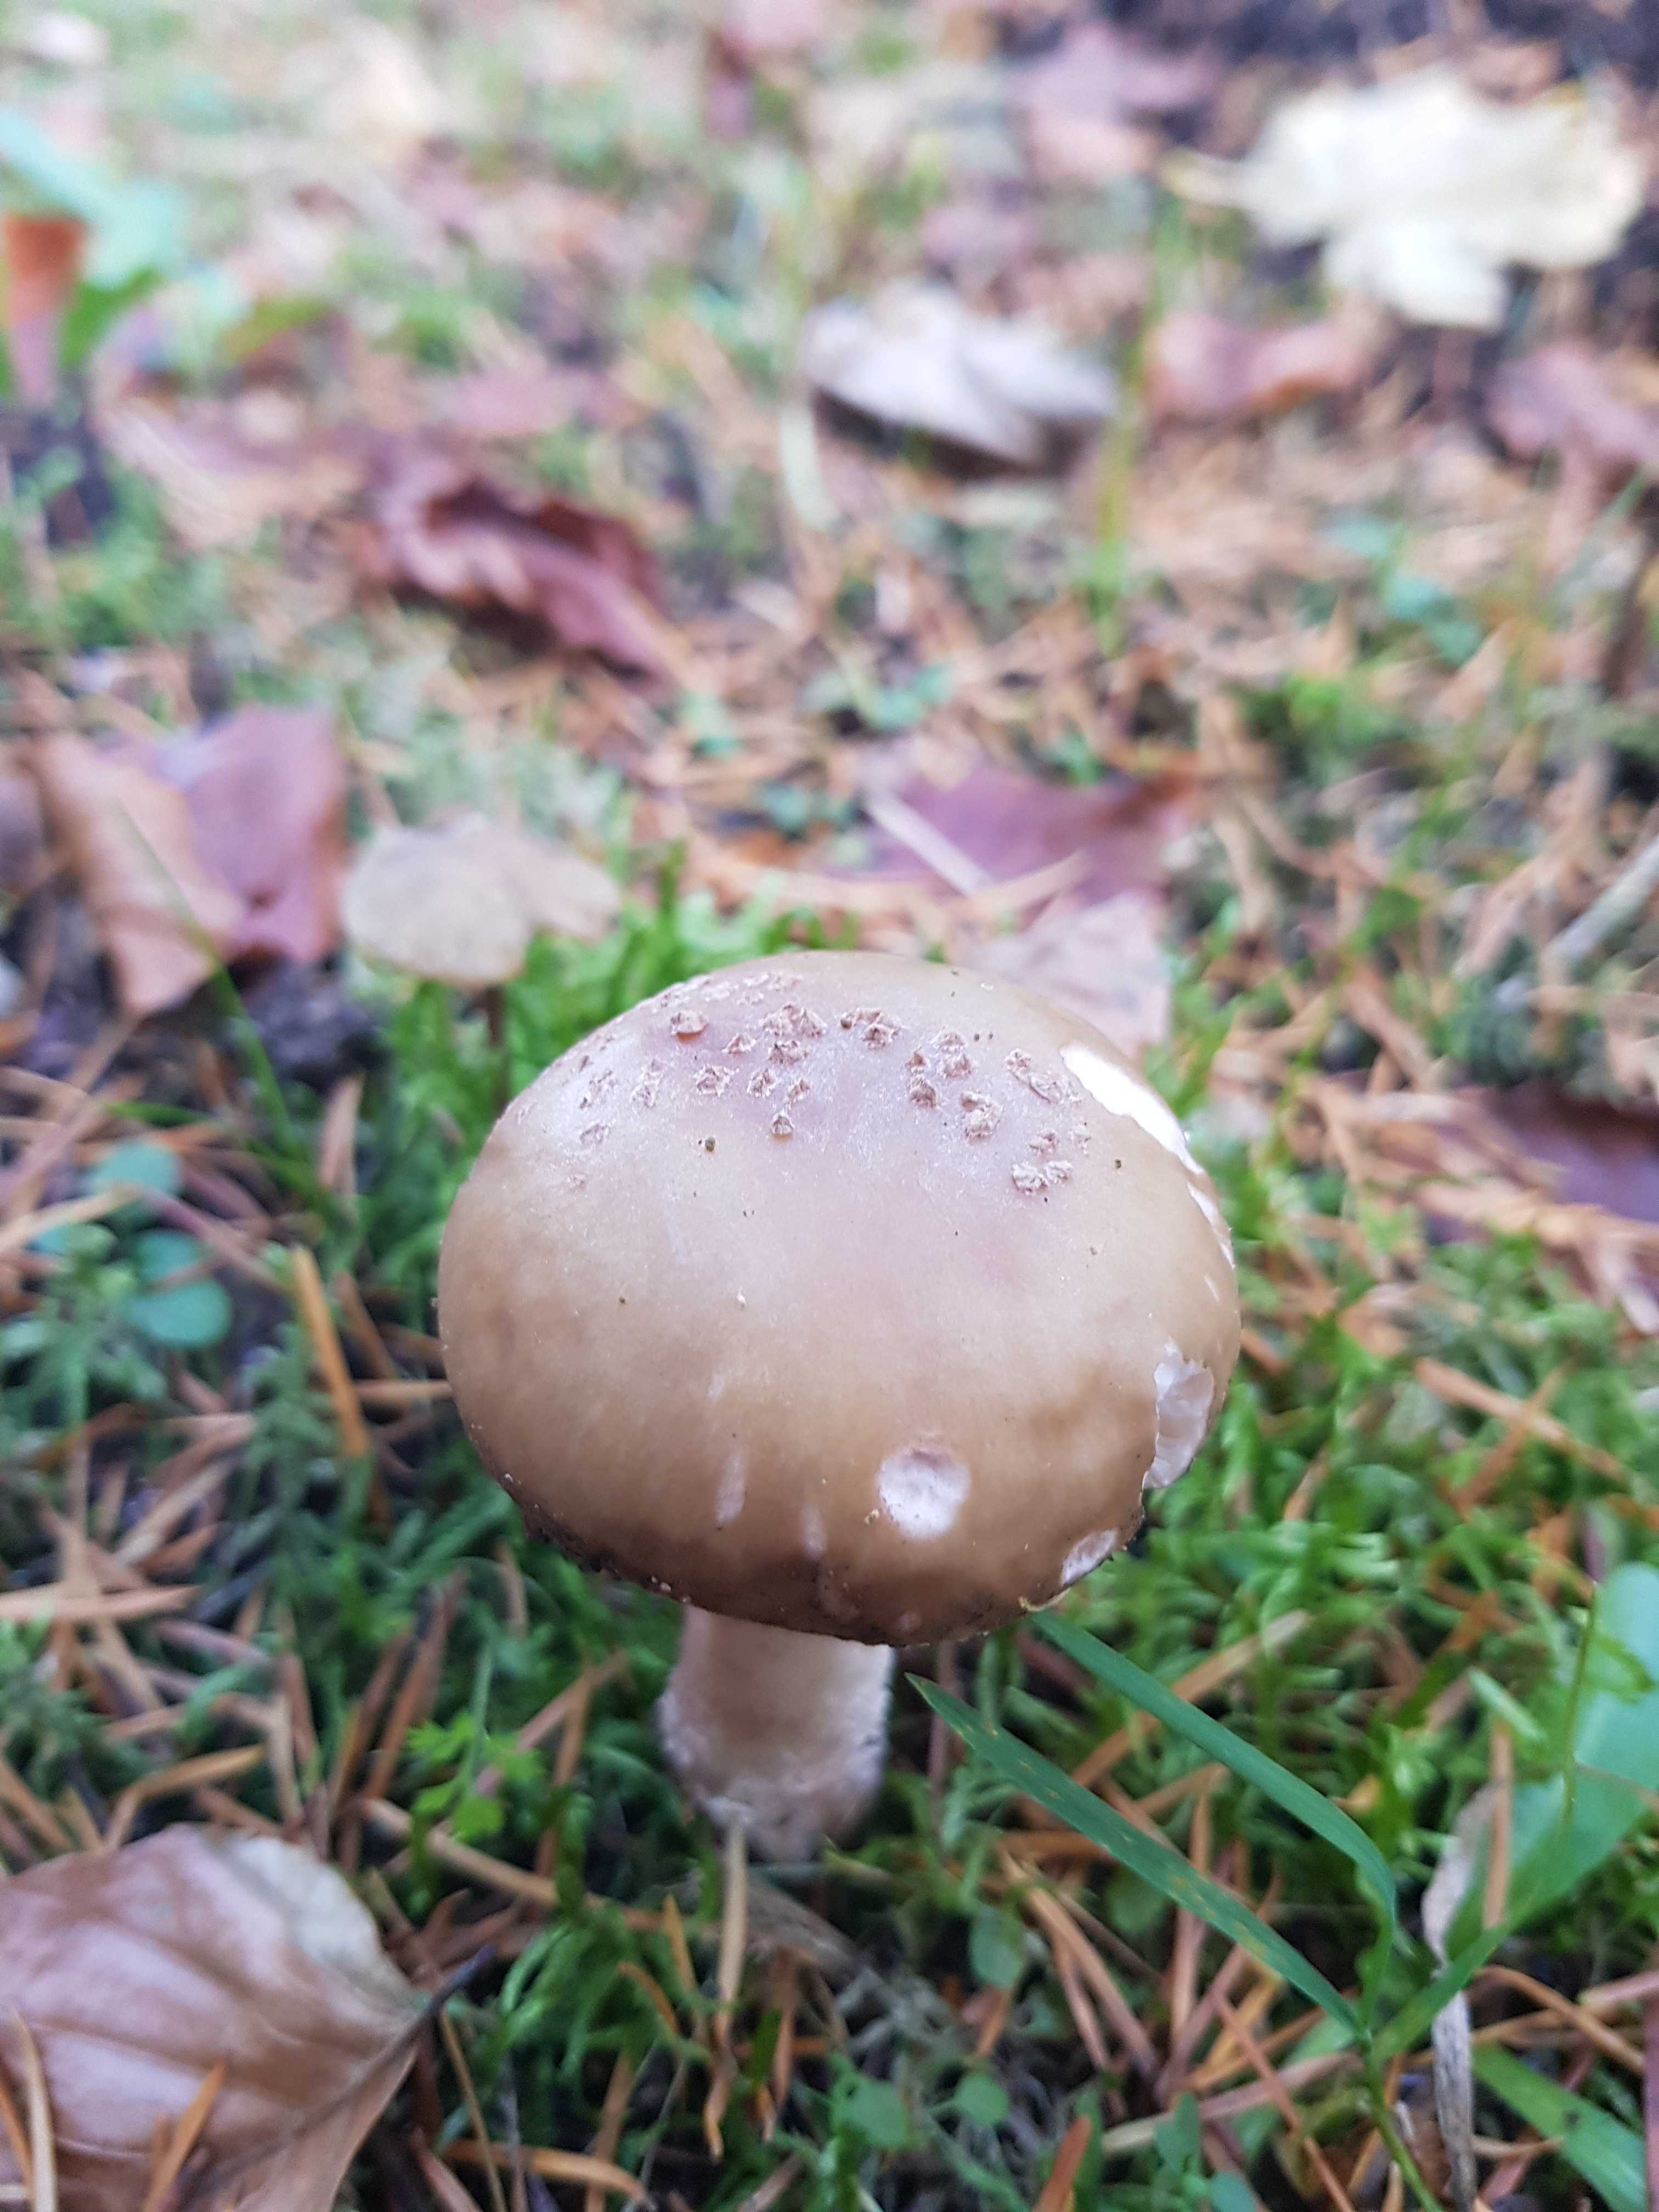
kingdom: Fungi
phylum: Basidiomycota
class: Agaricomycetes
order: Agaricales
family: Amanitaceae
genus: Amanita
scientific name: Amanita rubescens
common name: rødmende fluesvamp
